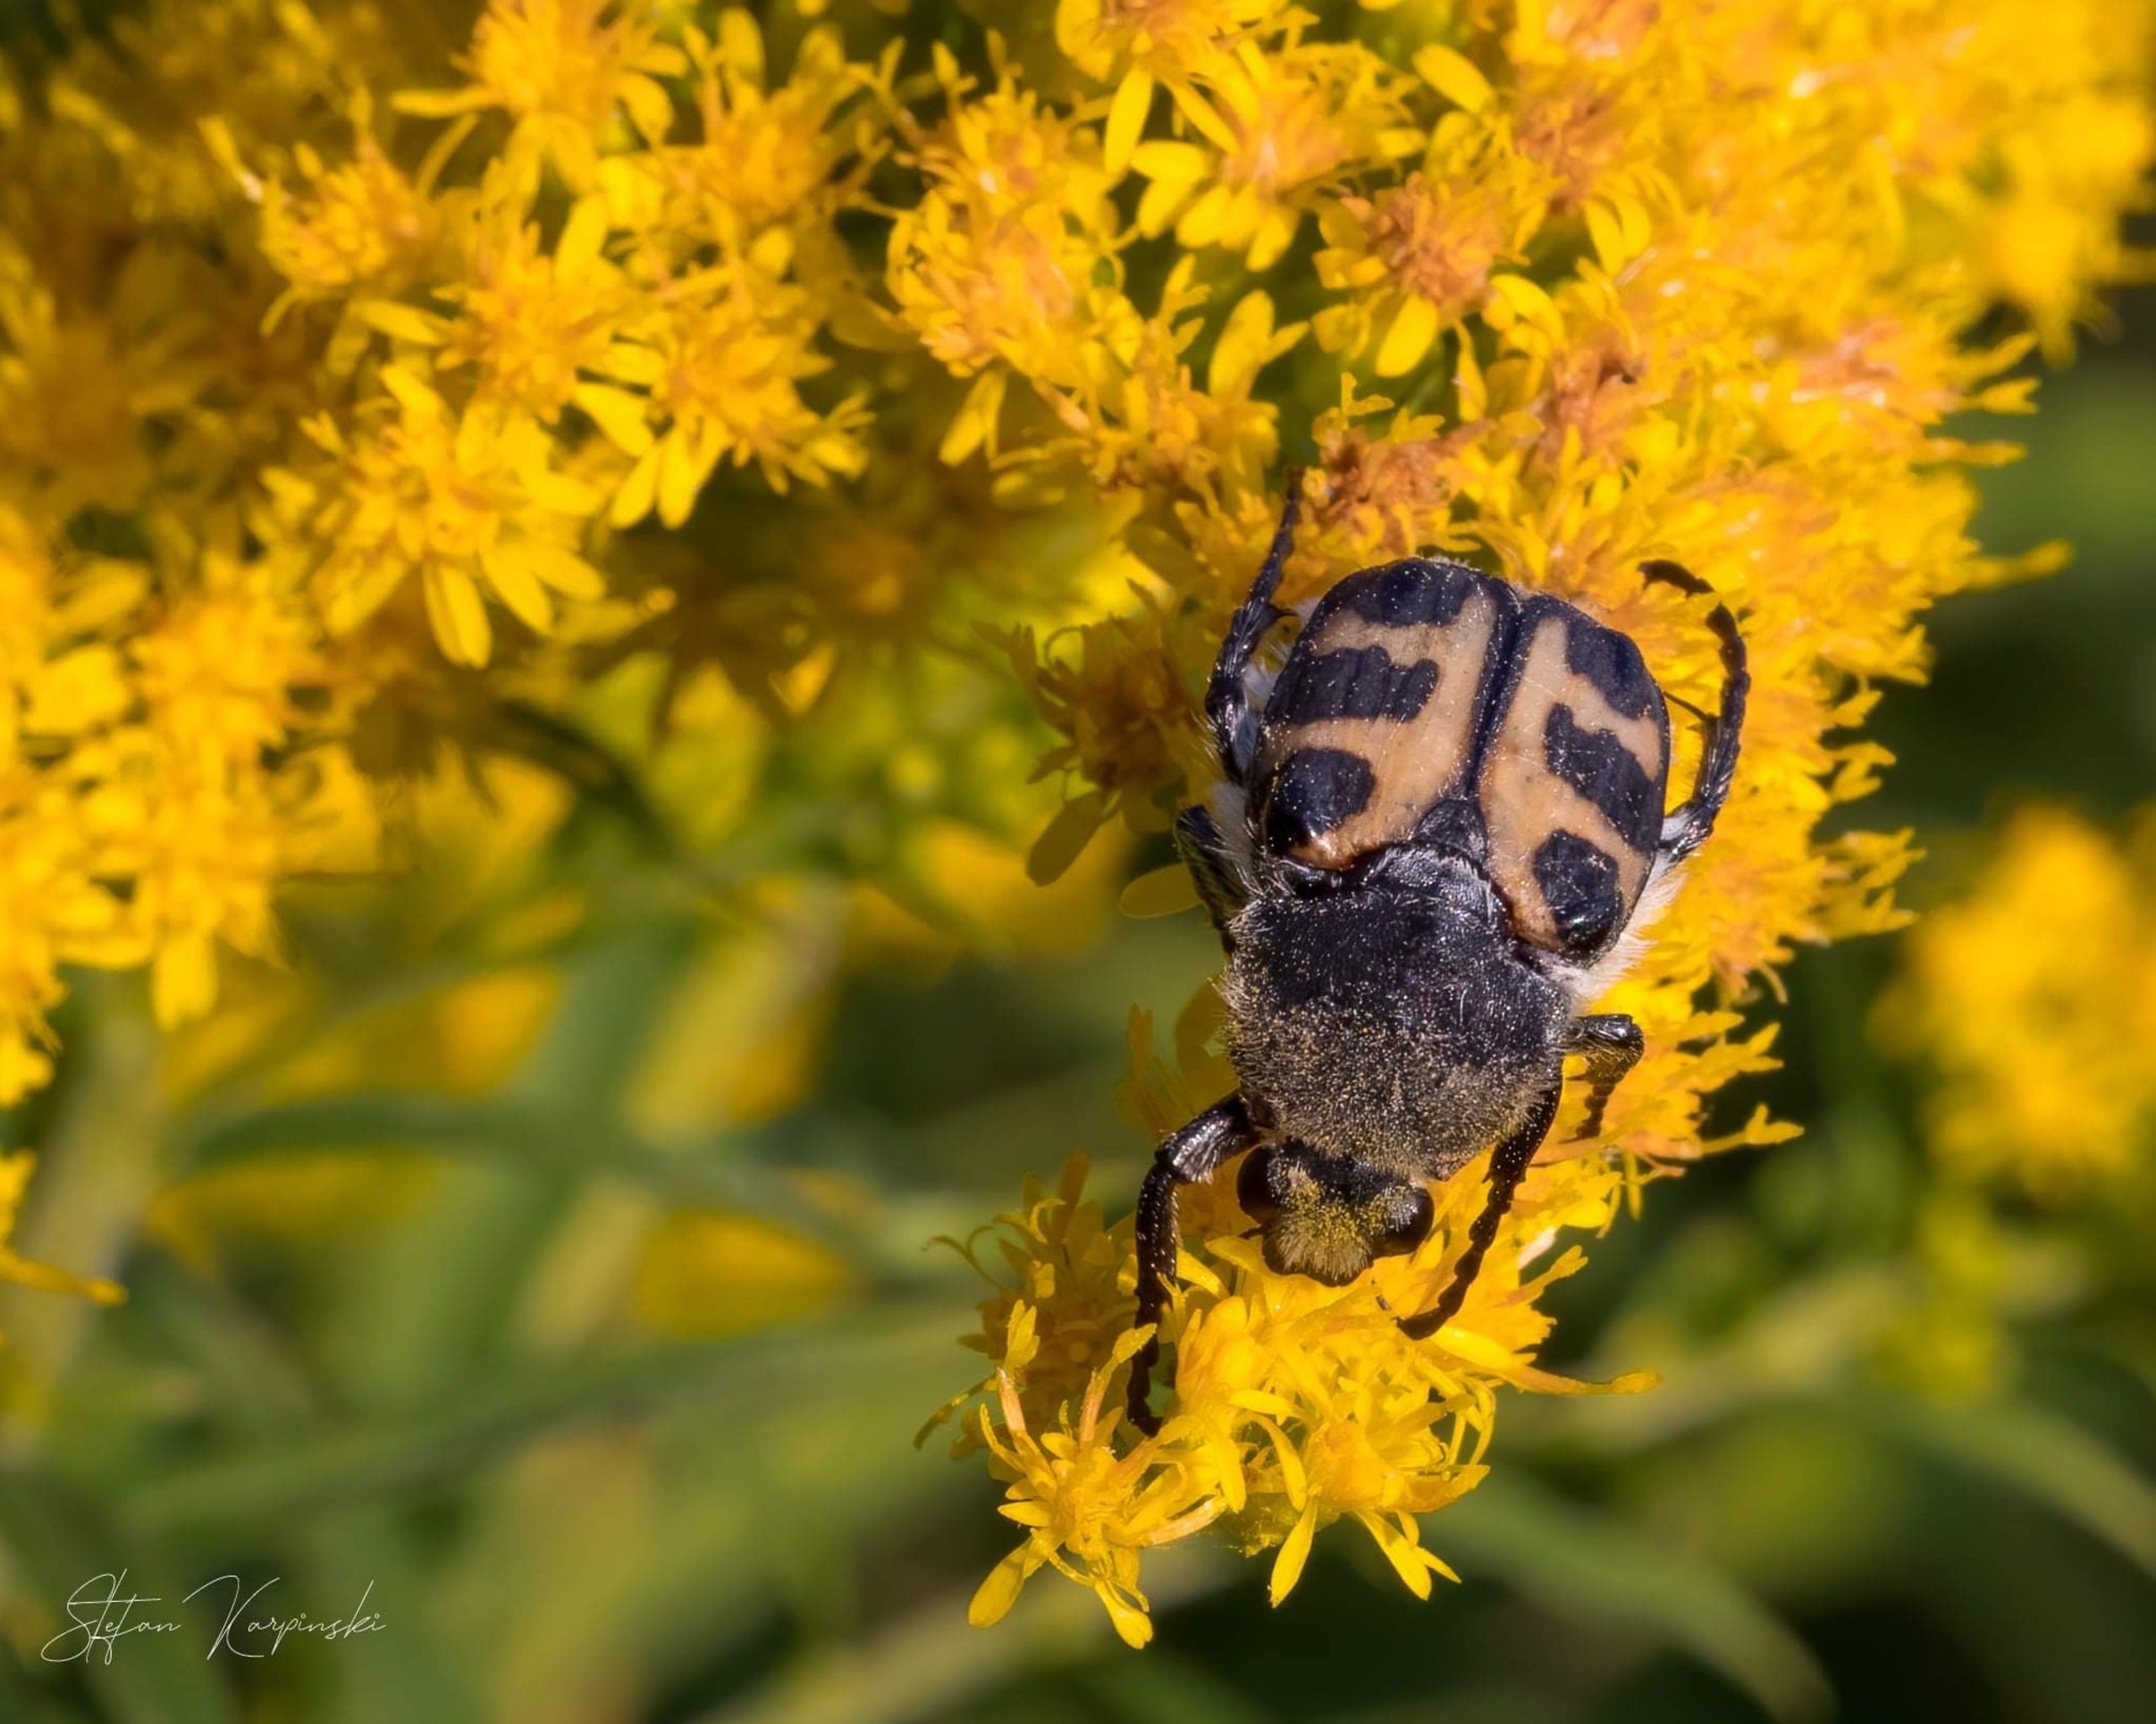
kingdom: Animalia
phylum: Arthropoda
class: Insecta
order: Coleoptera
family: Scarabaeidae
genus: Trichius
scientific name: Trichius gallicus
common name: Lille humlebille
